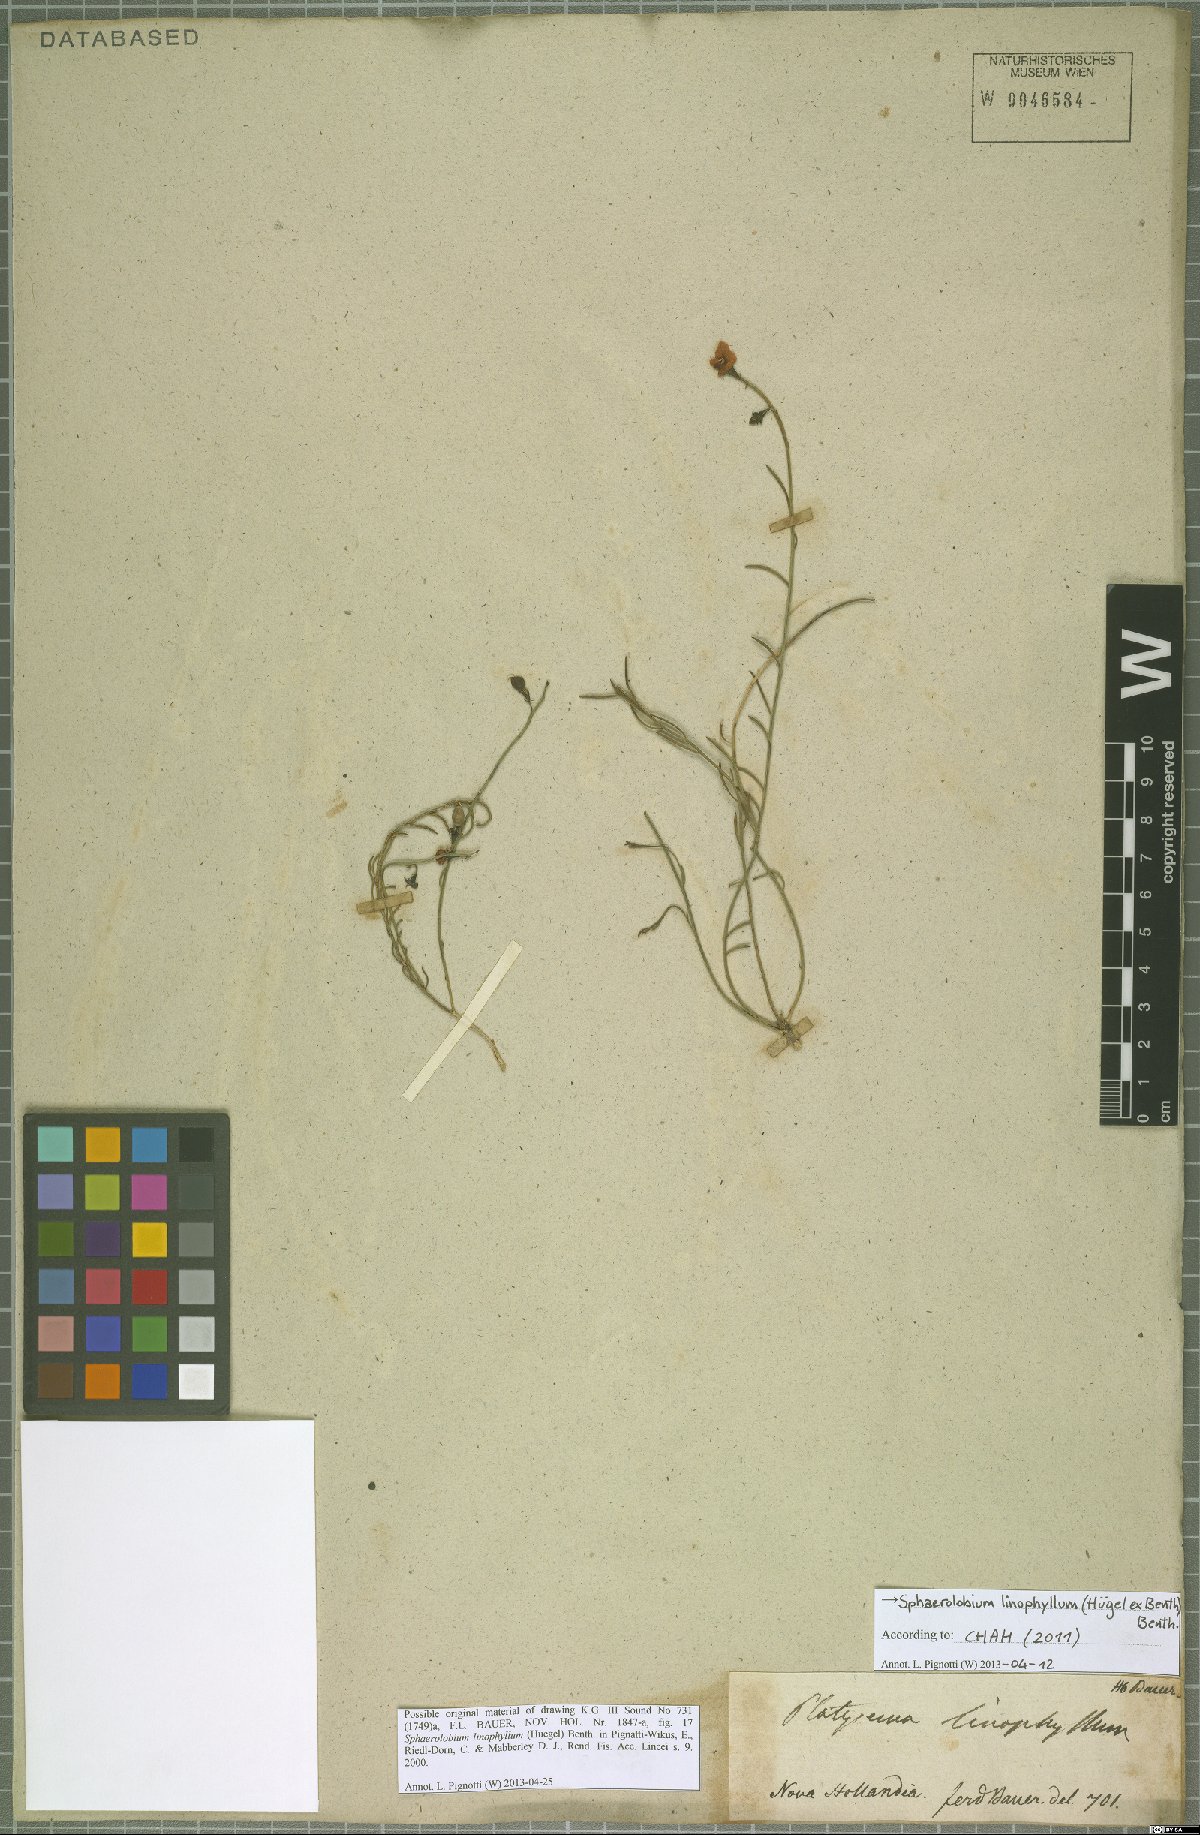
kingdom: Plantae
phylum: Tracheophyta
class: Magnoliopsida
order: Fabales
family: Fabaceae
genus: Sphaerolobium
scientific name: Sphaerolobium linophyllum
